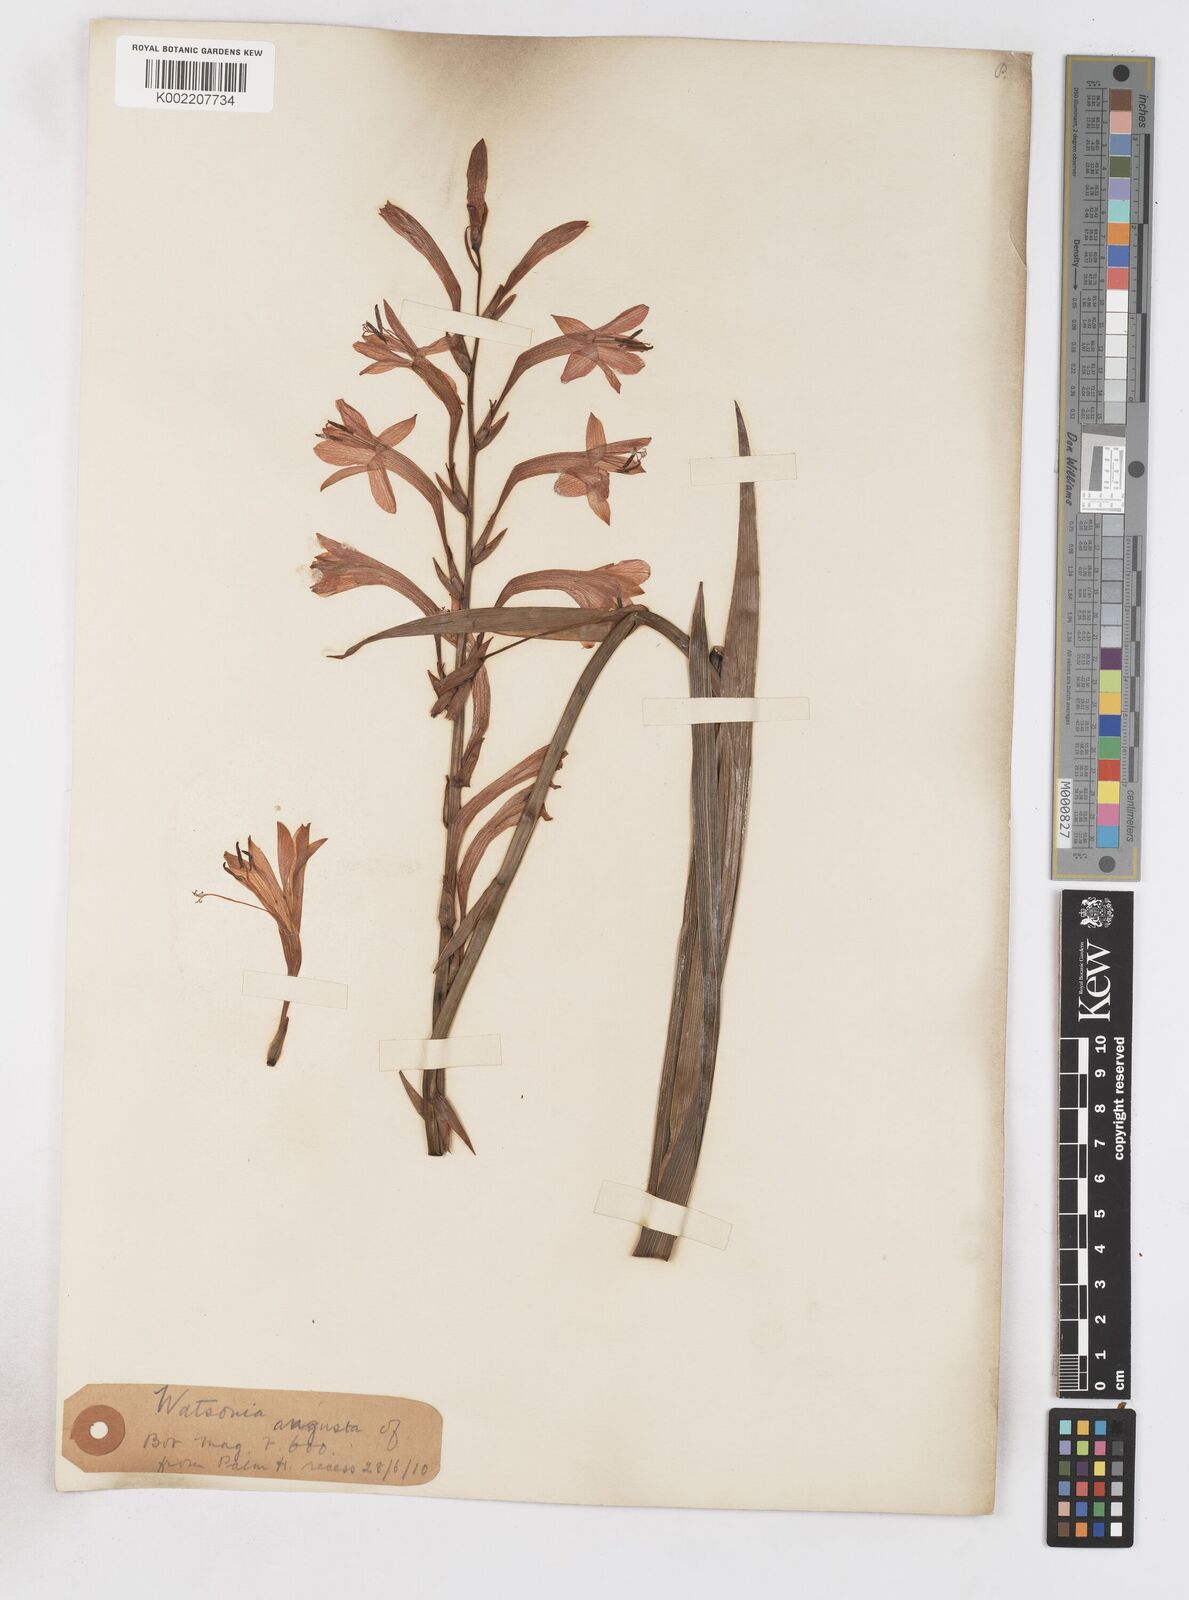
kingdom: Plantae
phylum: Tracheophyta
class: Liliopsida
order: Asparagales
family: Iridaceae
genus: Watsonia
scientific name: Watsonia angusta
